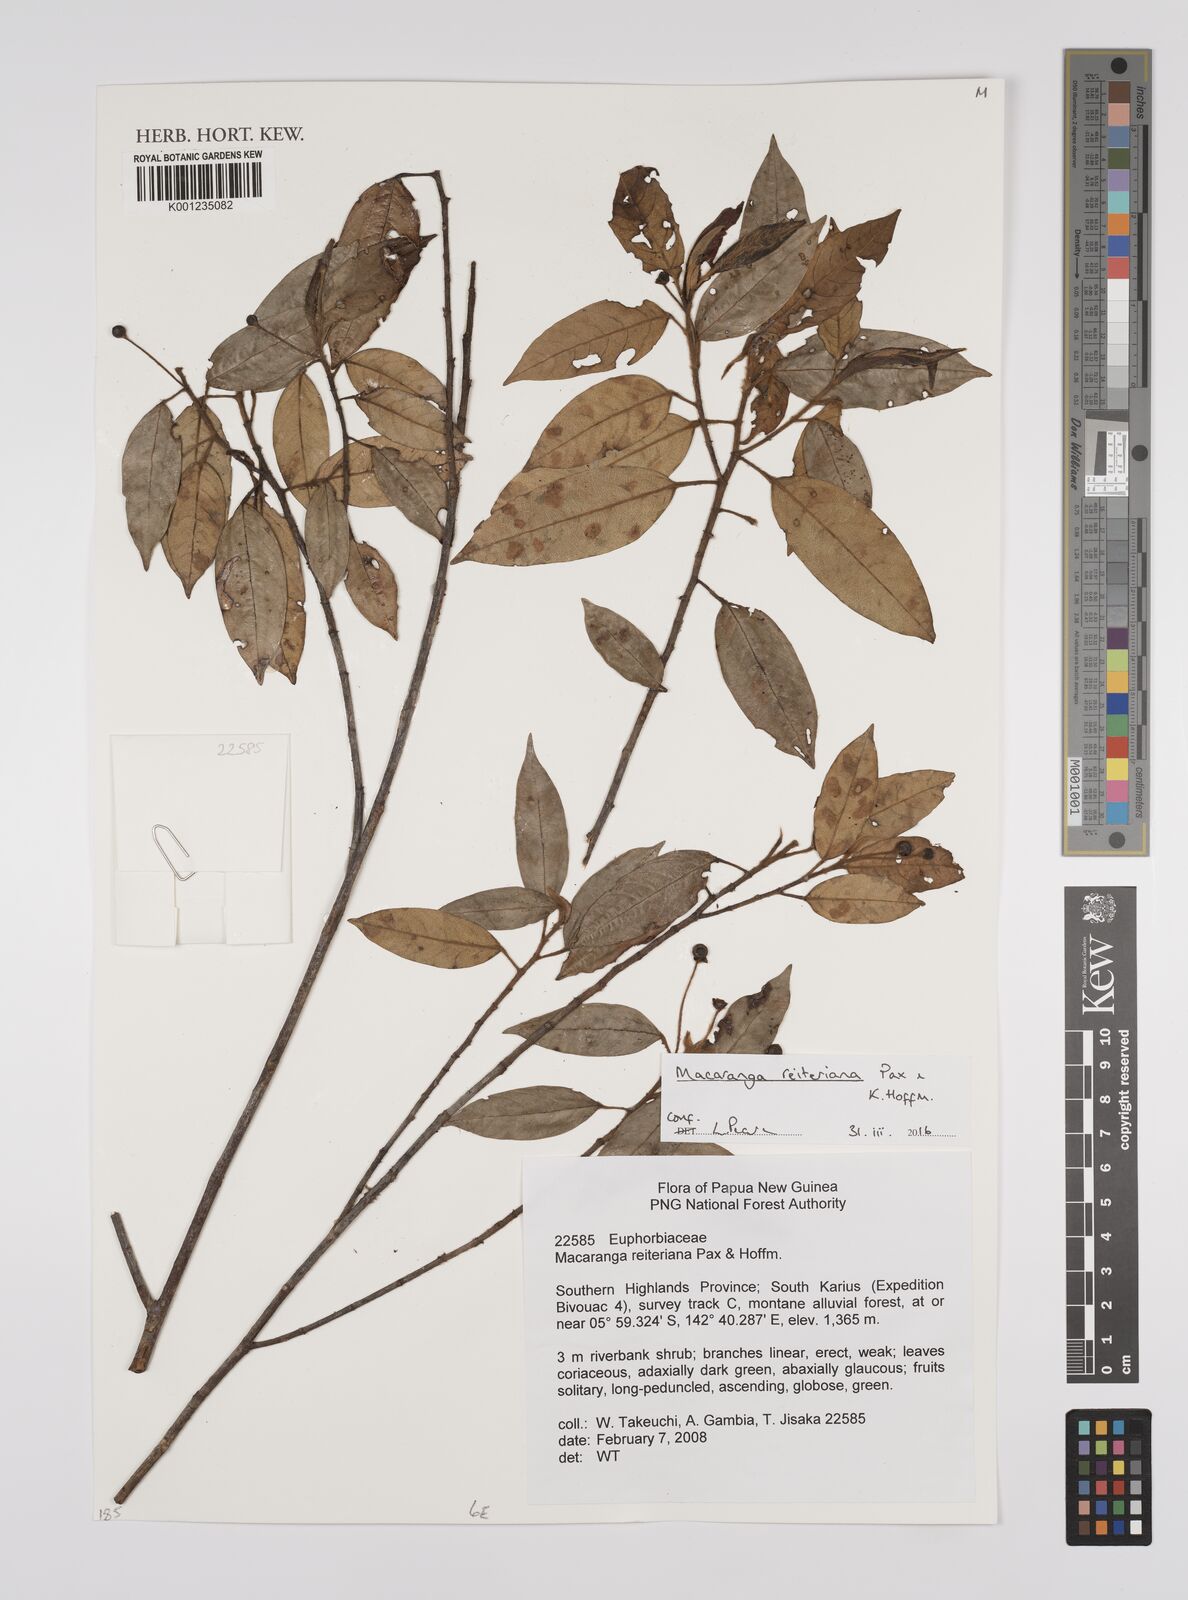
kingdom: Plantae
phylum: Tracheophyta
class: Magnoliopsida
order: Malpighiales
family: Euphorbiaceae
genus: Macaranga
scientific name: Macaranga reiteriana
